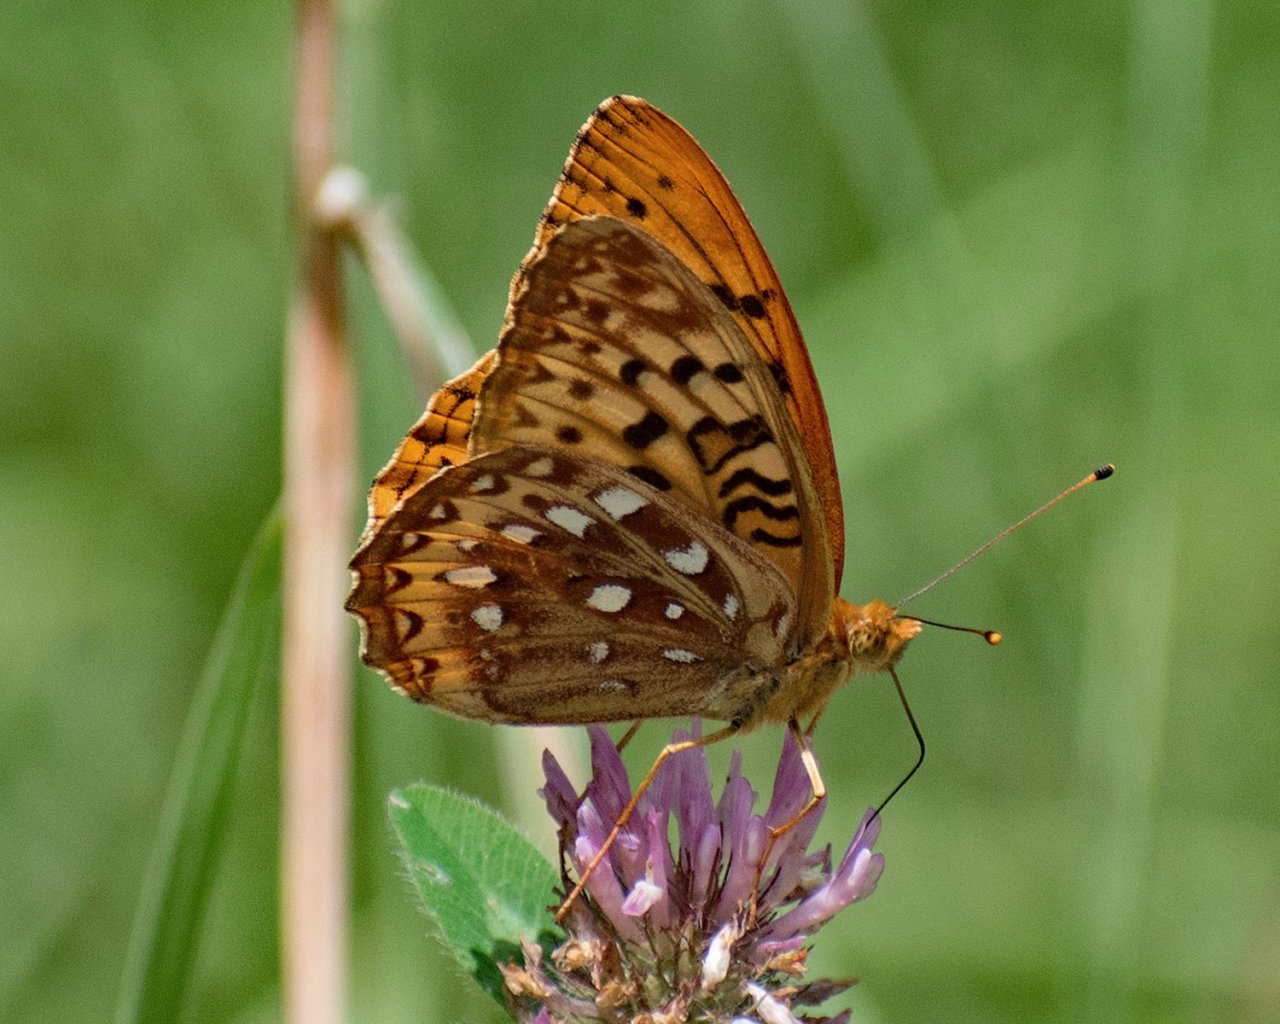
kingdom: Animalia
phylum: Arthropoda
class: Insecta
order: Lepidoptera
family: Nymphalidae
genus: Speyeria
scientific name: Speyeria cybele
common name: Great Spangled Fritillary
